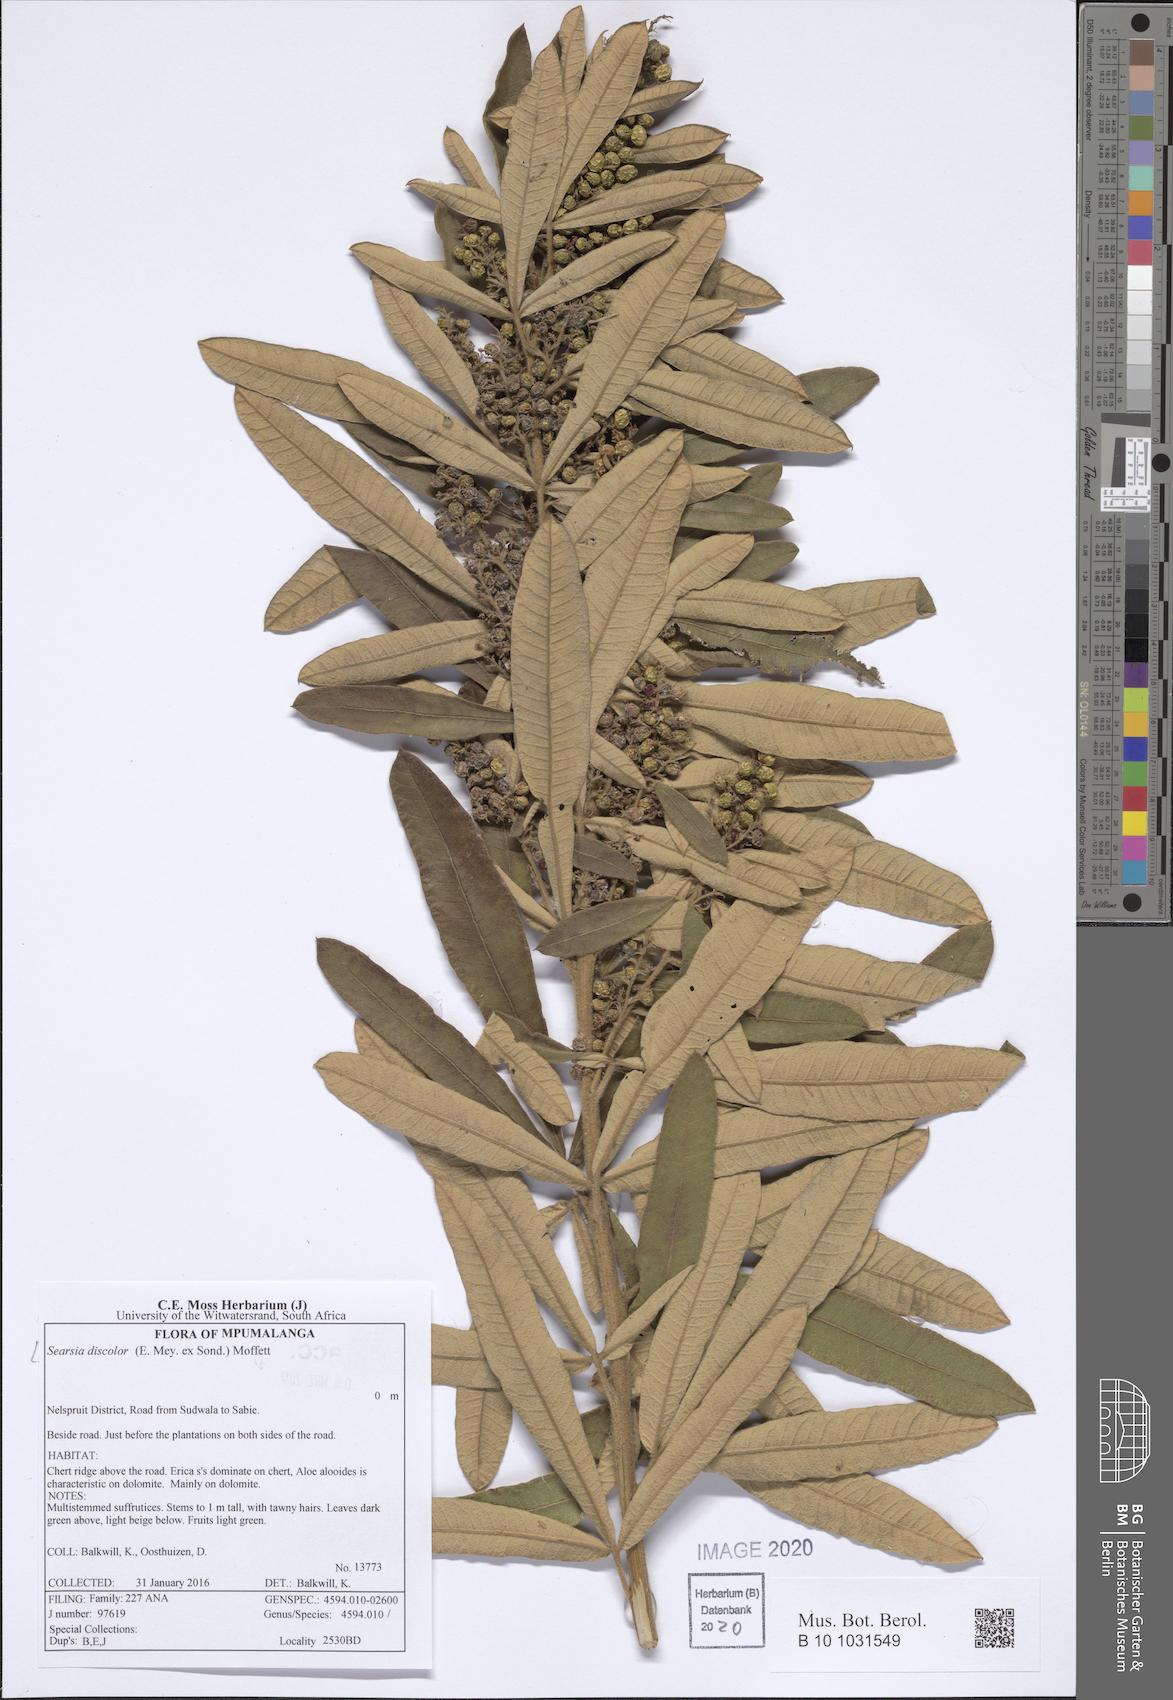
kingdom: Plantae
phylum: Tracheophyta
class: Magnoliopsida
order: Sapindales
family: Anacardiaceae
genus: Searsia
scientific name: Searsia discolor
